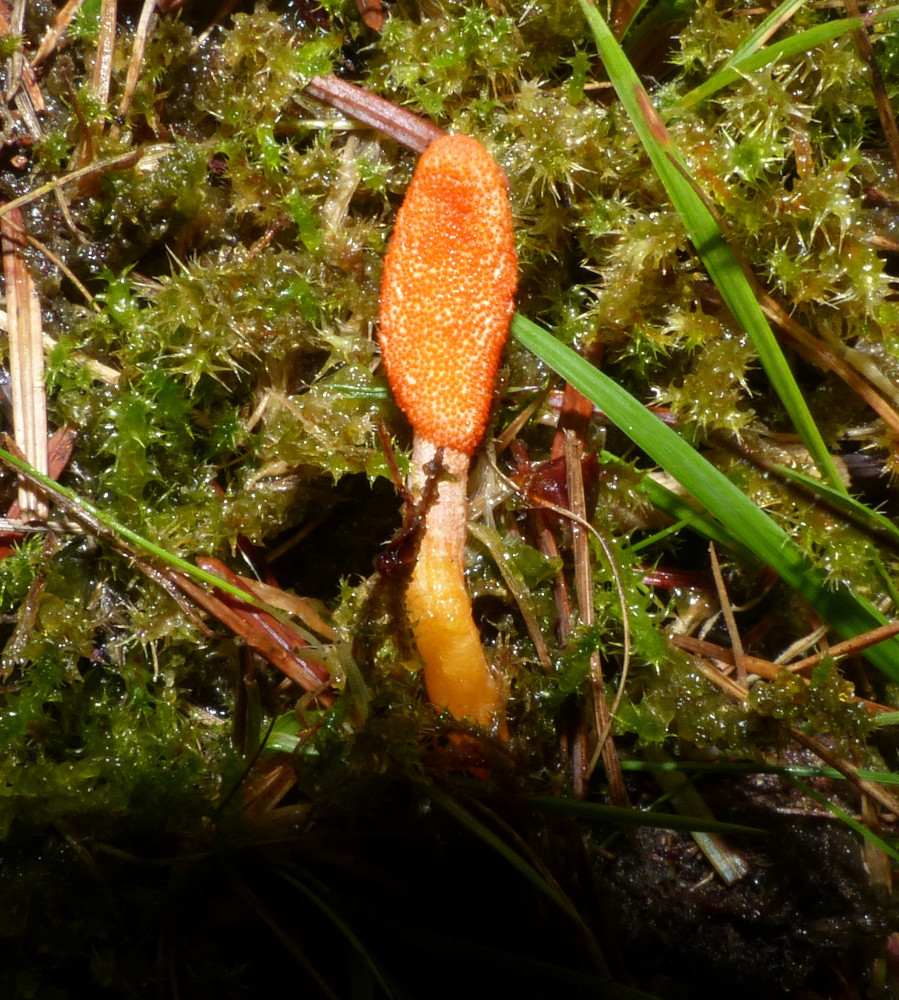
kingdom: Fungi
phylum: Ascomycota
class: Sordariomycetes
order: Hypocreales
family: Cordycipitaceae
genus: Cordyceps
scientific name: Cordyceps militaris
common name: puppe-snyltekølle
